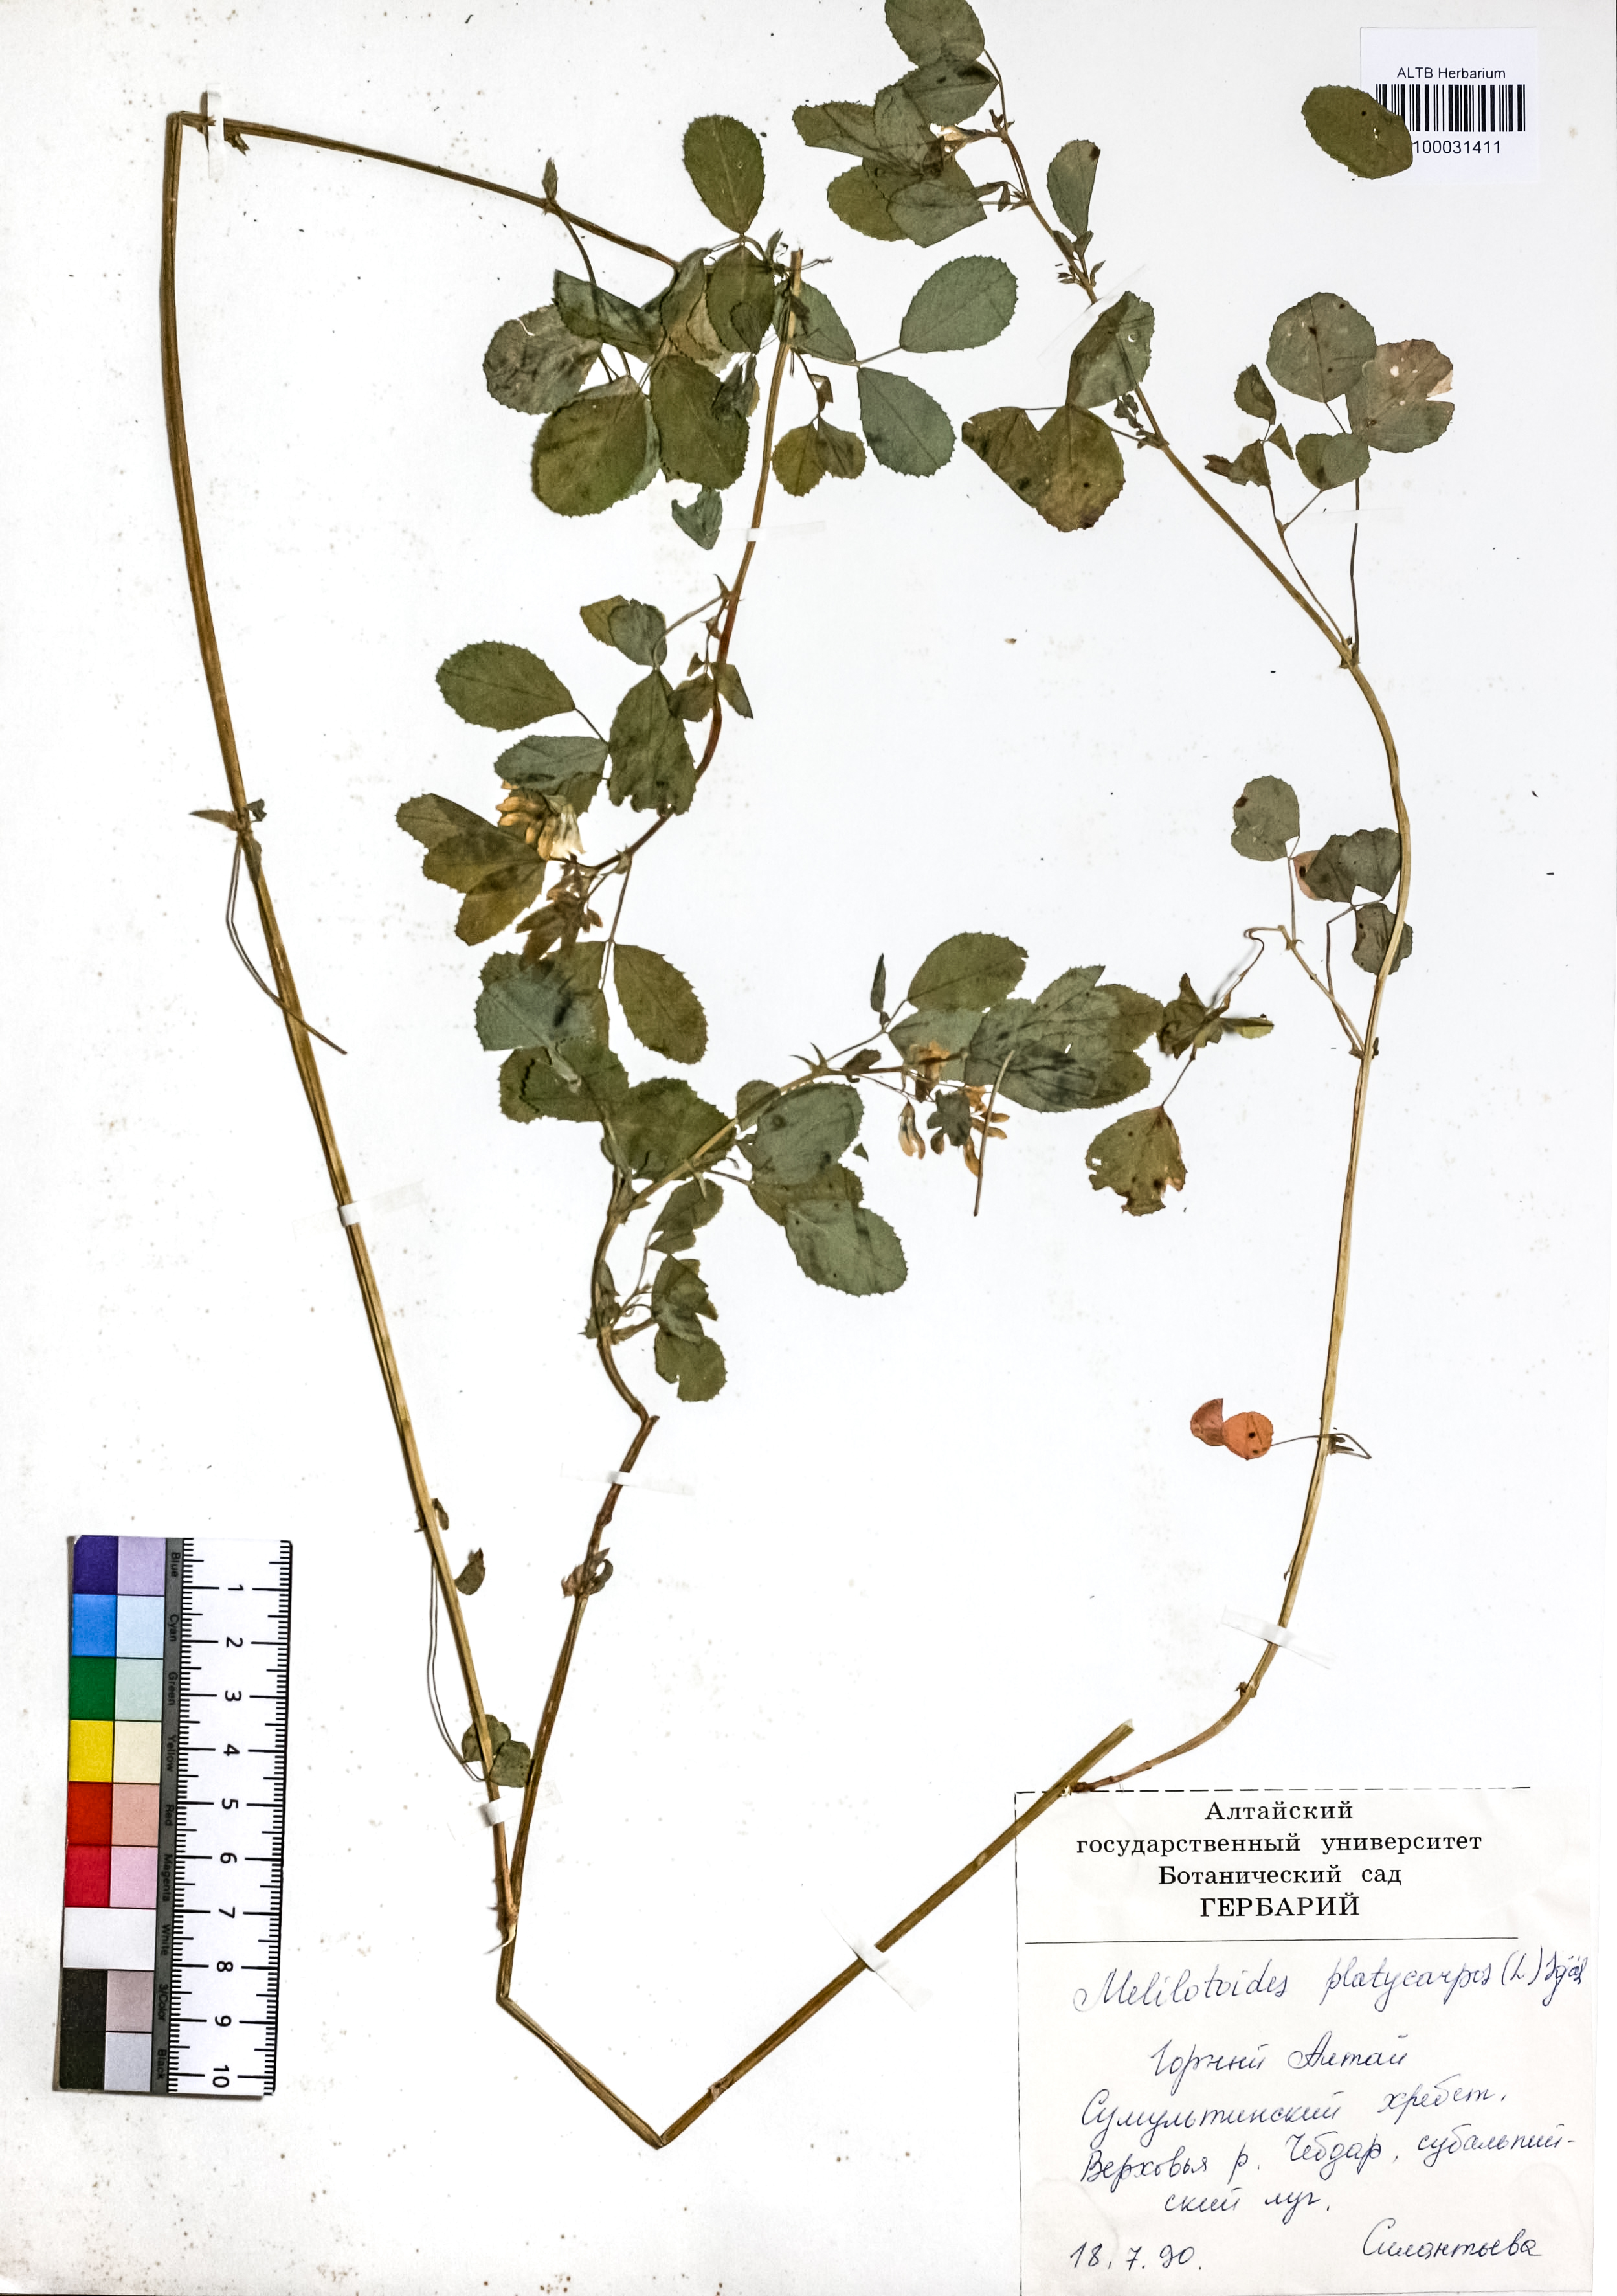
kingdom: Plantae
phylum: Tracheophyta
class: Magnoliopsida
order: Fabales
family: Fabaceae
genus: Medicago
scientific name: Medicago platycarpos
